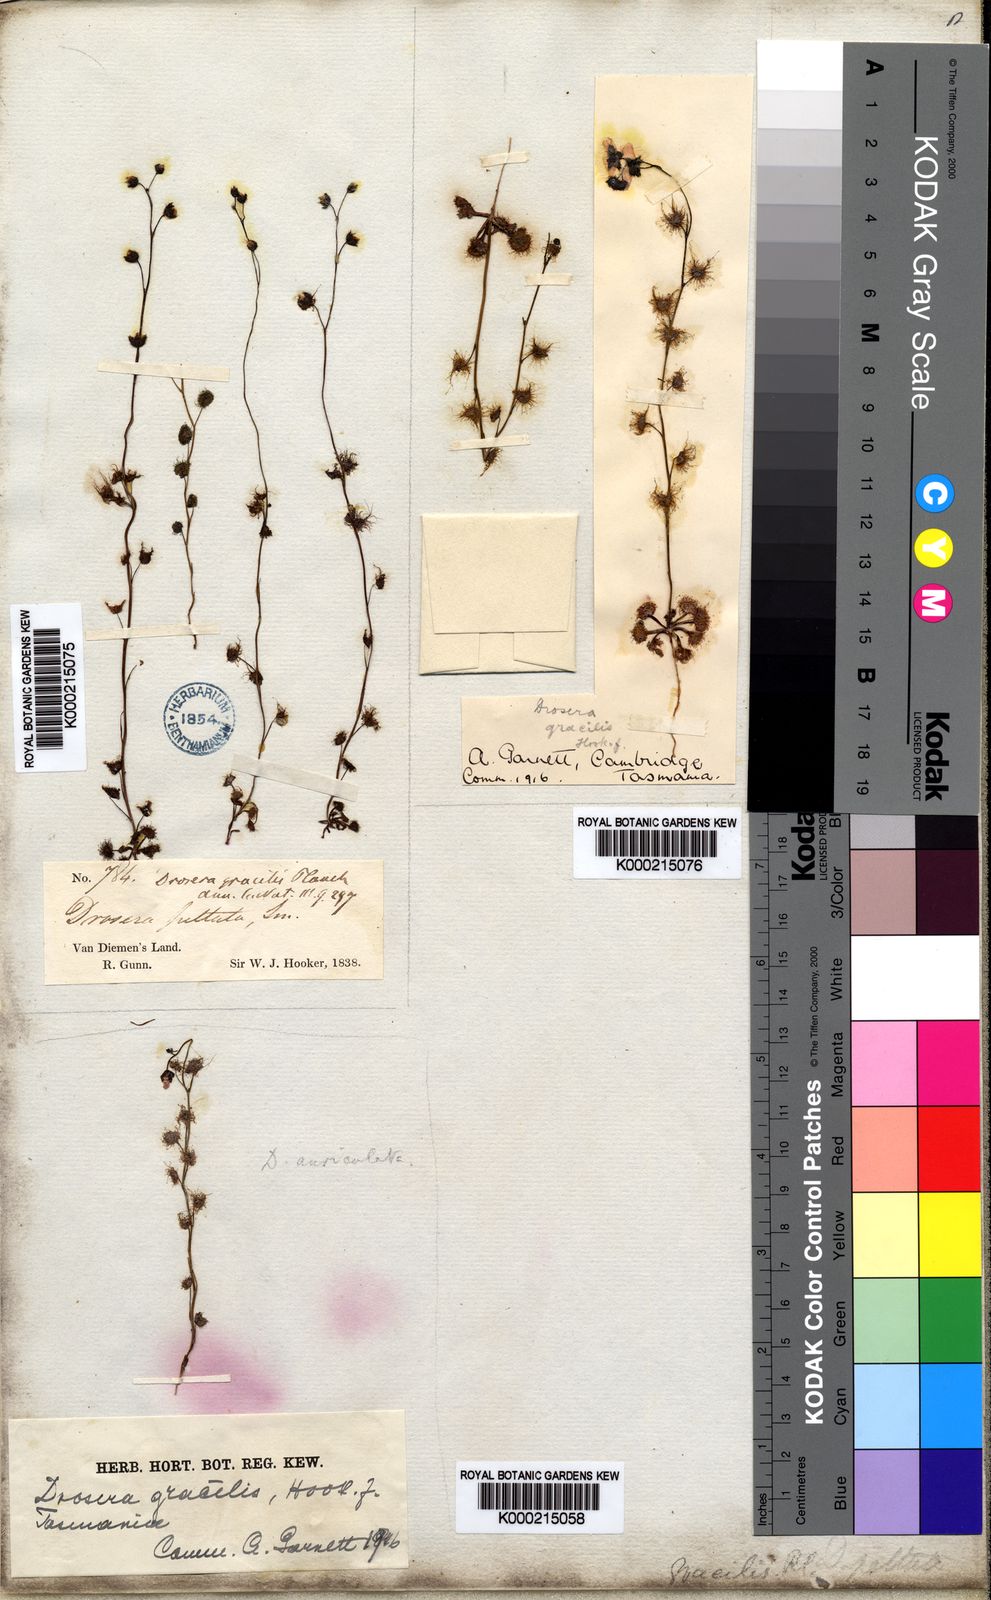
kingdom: Plantae
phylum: Tracheophyta
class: Magnoliopsida
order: Caryophyllales
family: Droseraceae
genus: Drosera
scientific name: Drosera peltata
